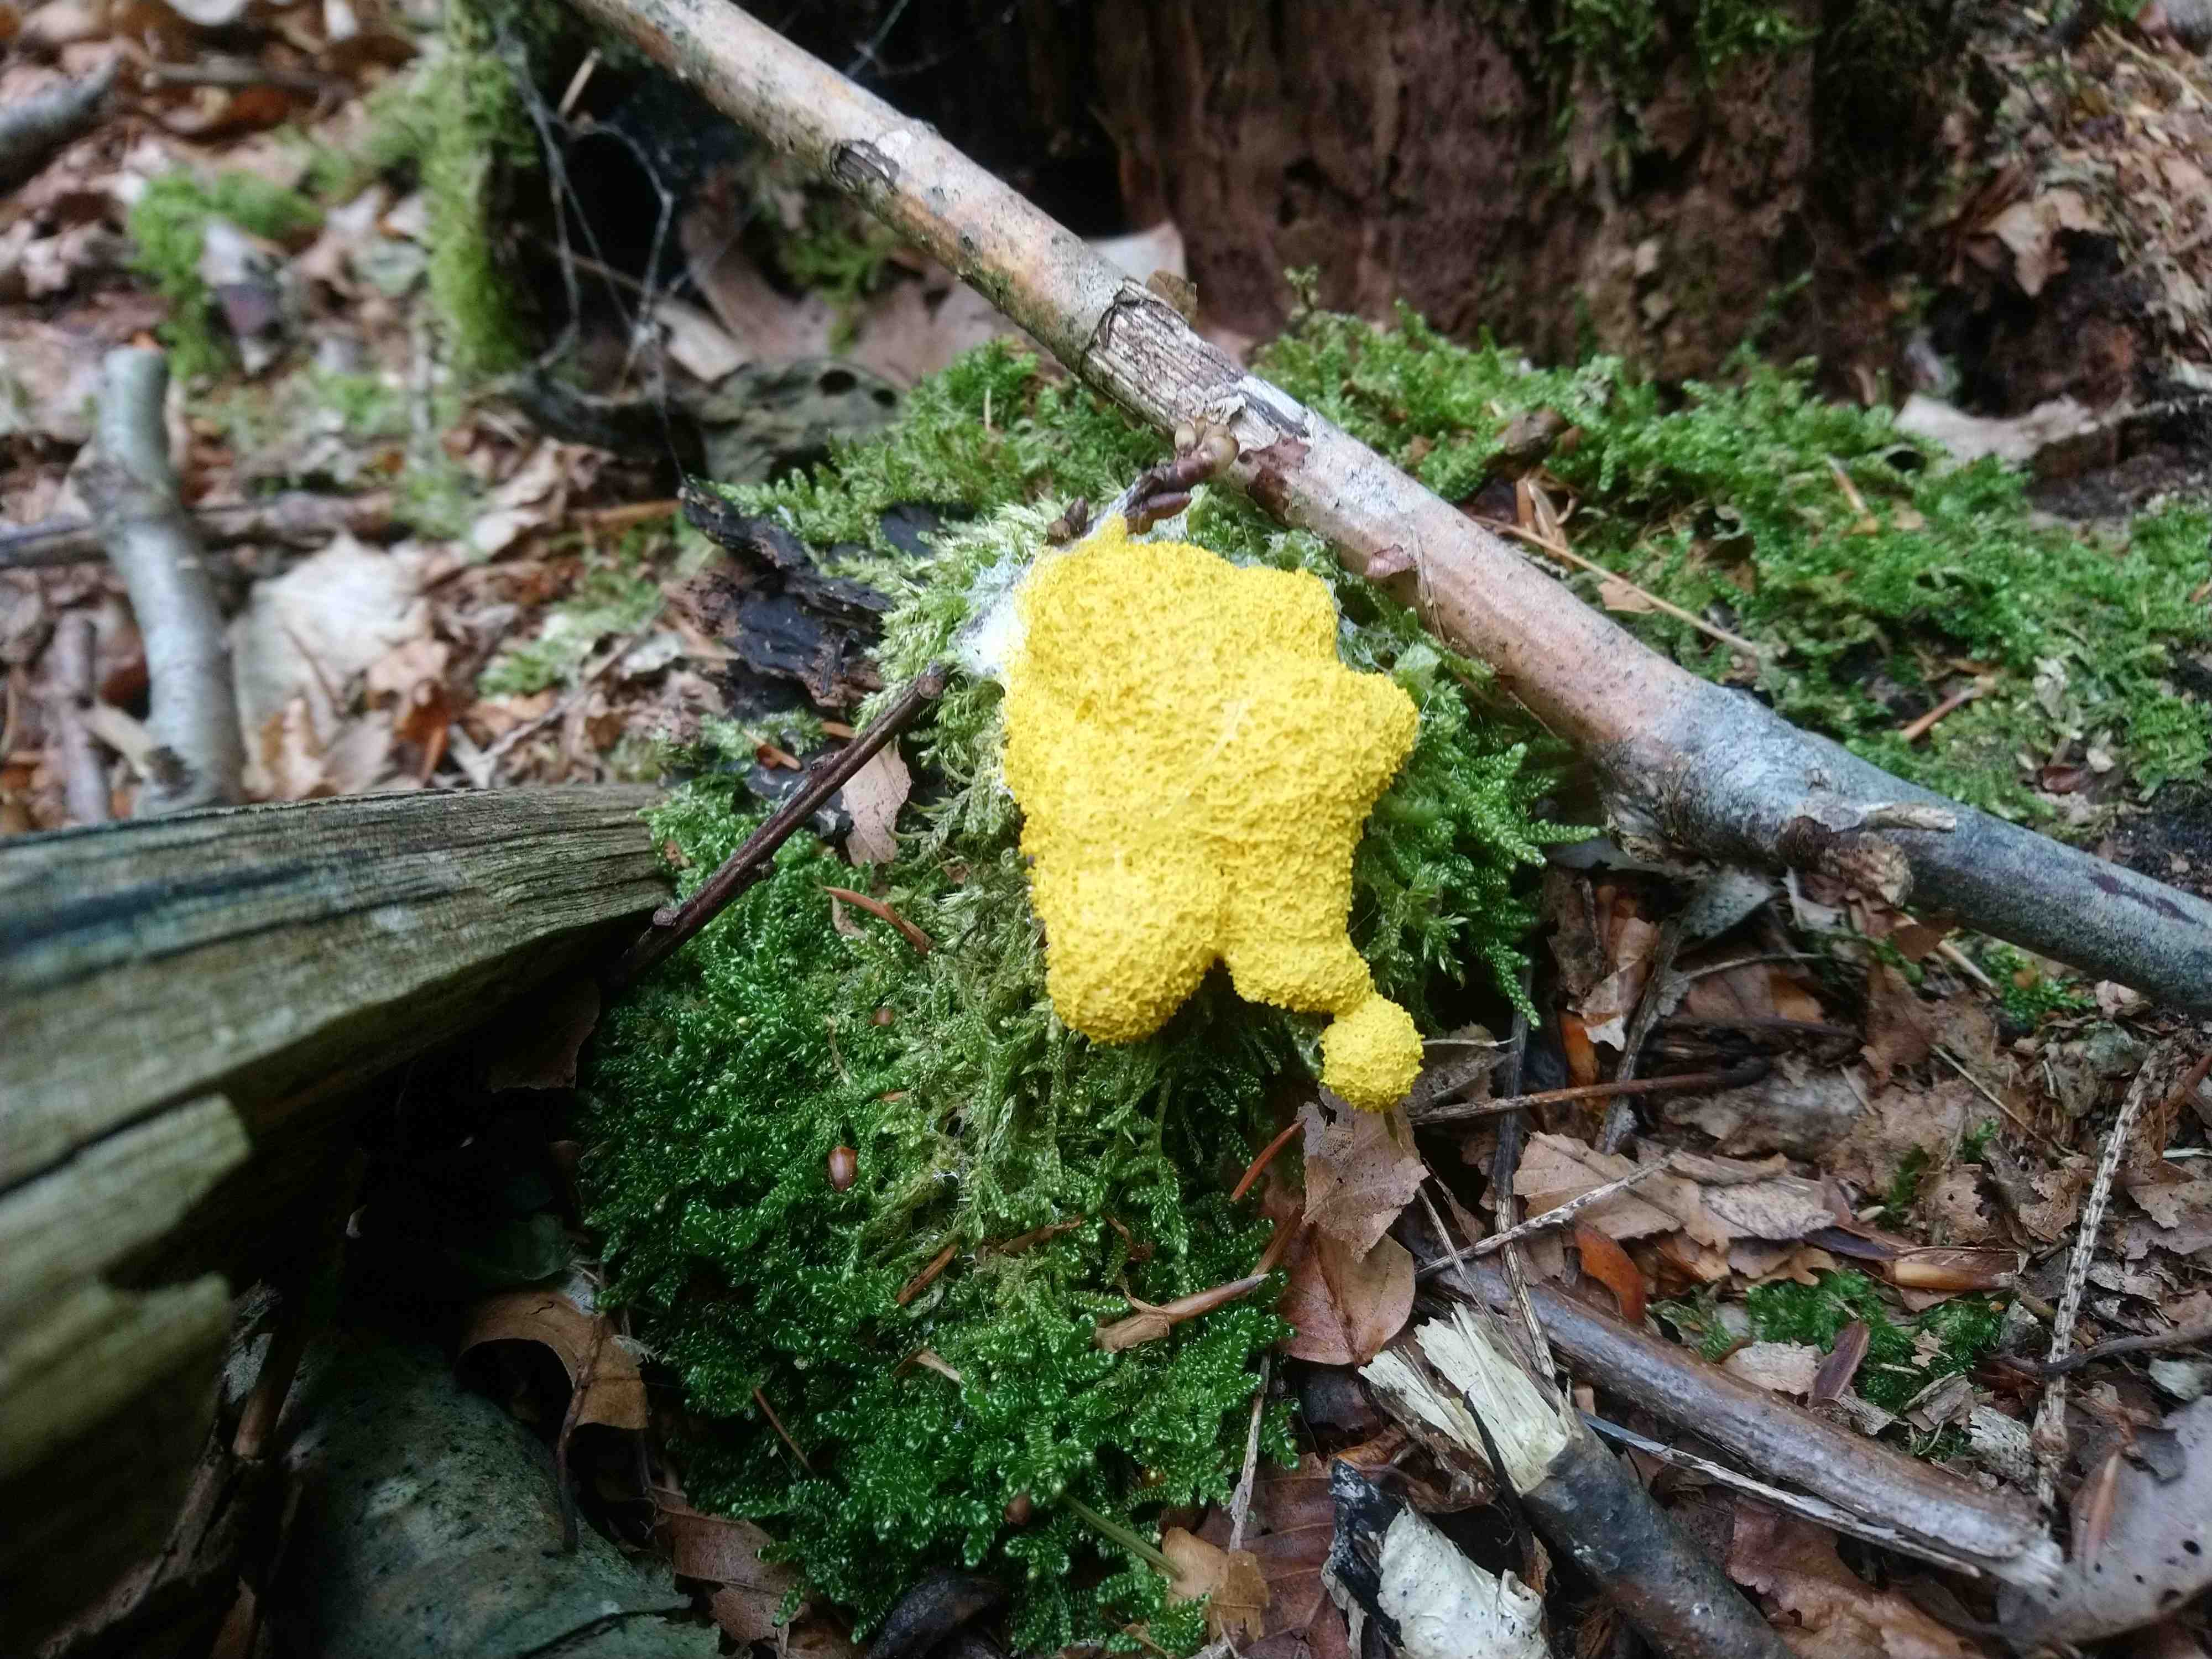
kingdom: Protozoa
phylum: Mycetozoa
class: Myxomycetes
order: Physarales
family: Physaraceae
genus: Fuligo
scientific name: Fuligo septica
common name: gul troldsmør
